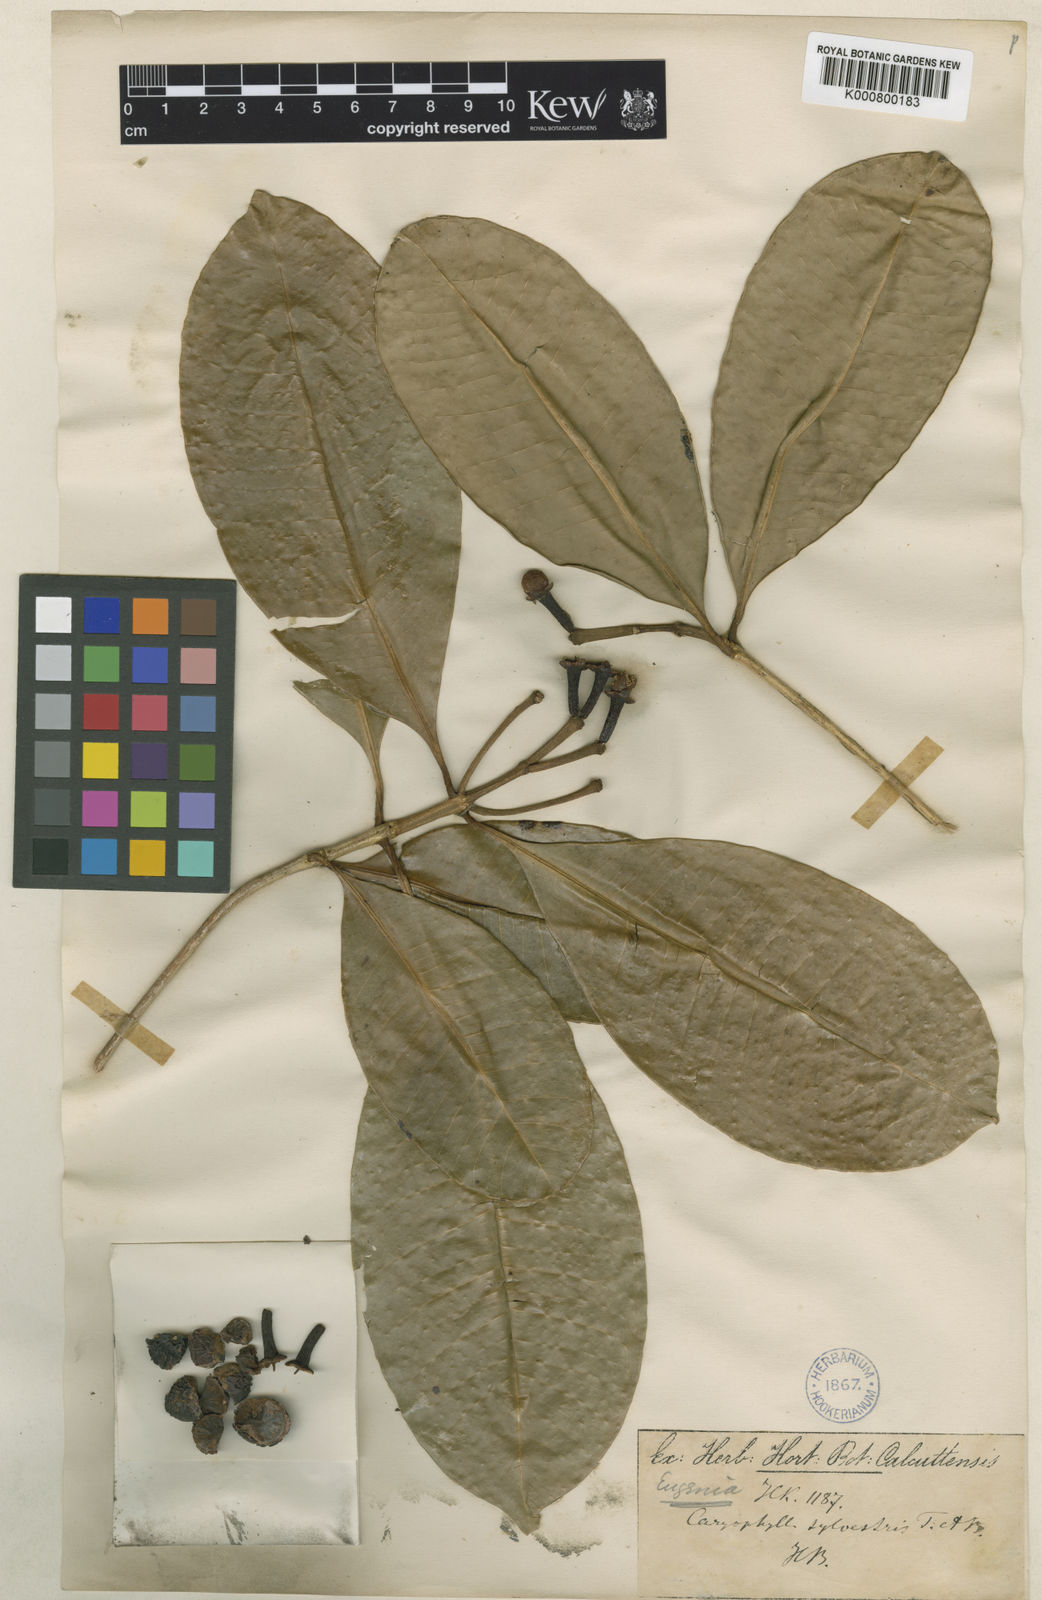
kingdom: Plantae
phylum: Tracheophyta
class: Magnoliopsida
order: Myrtales
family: Myrtaceae
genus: Syzygium
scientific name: Syzygium makul
